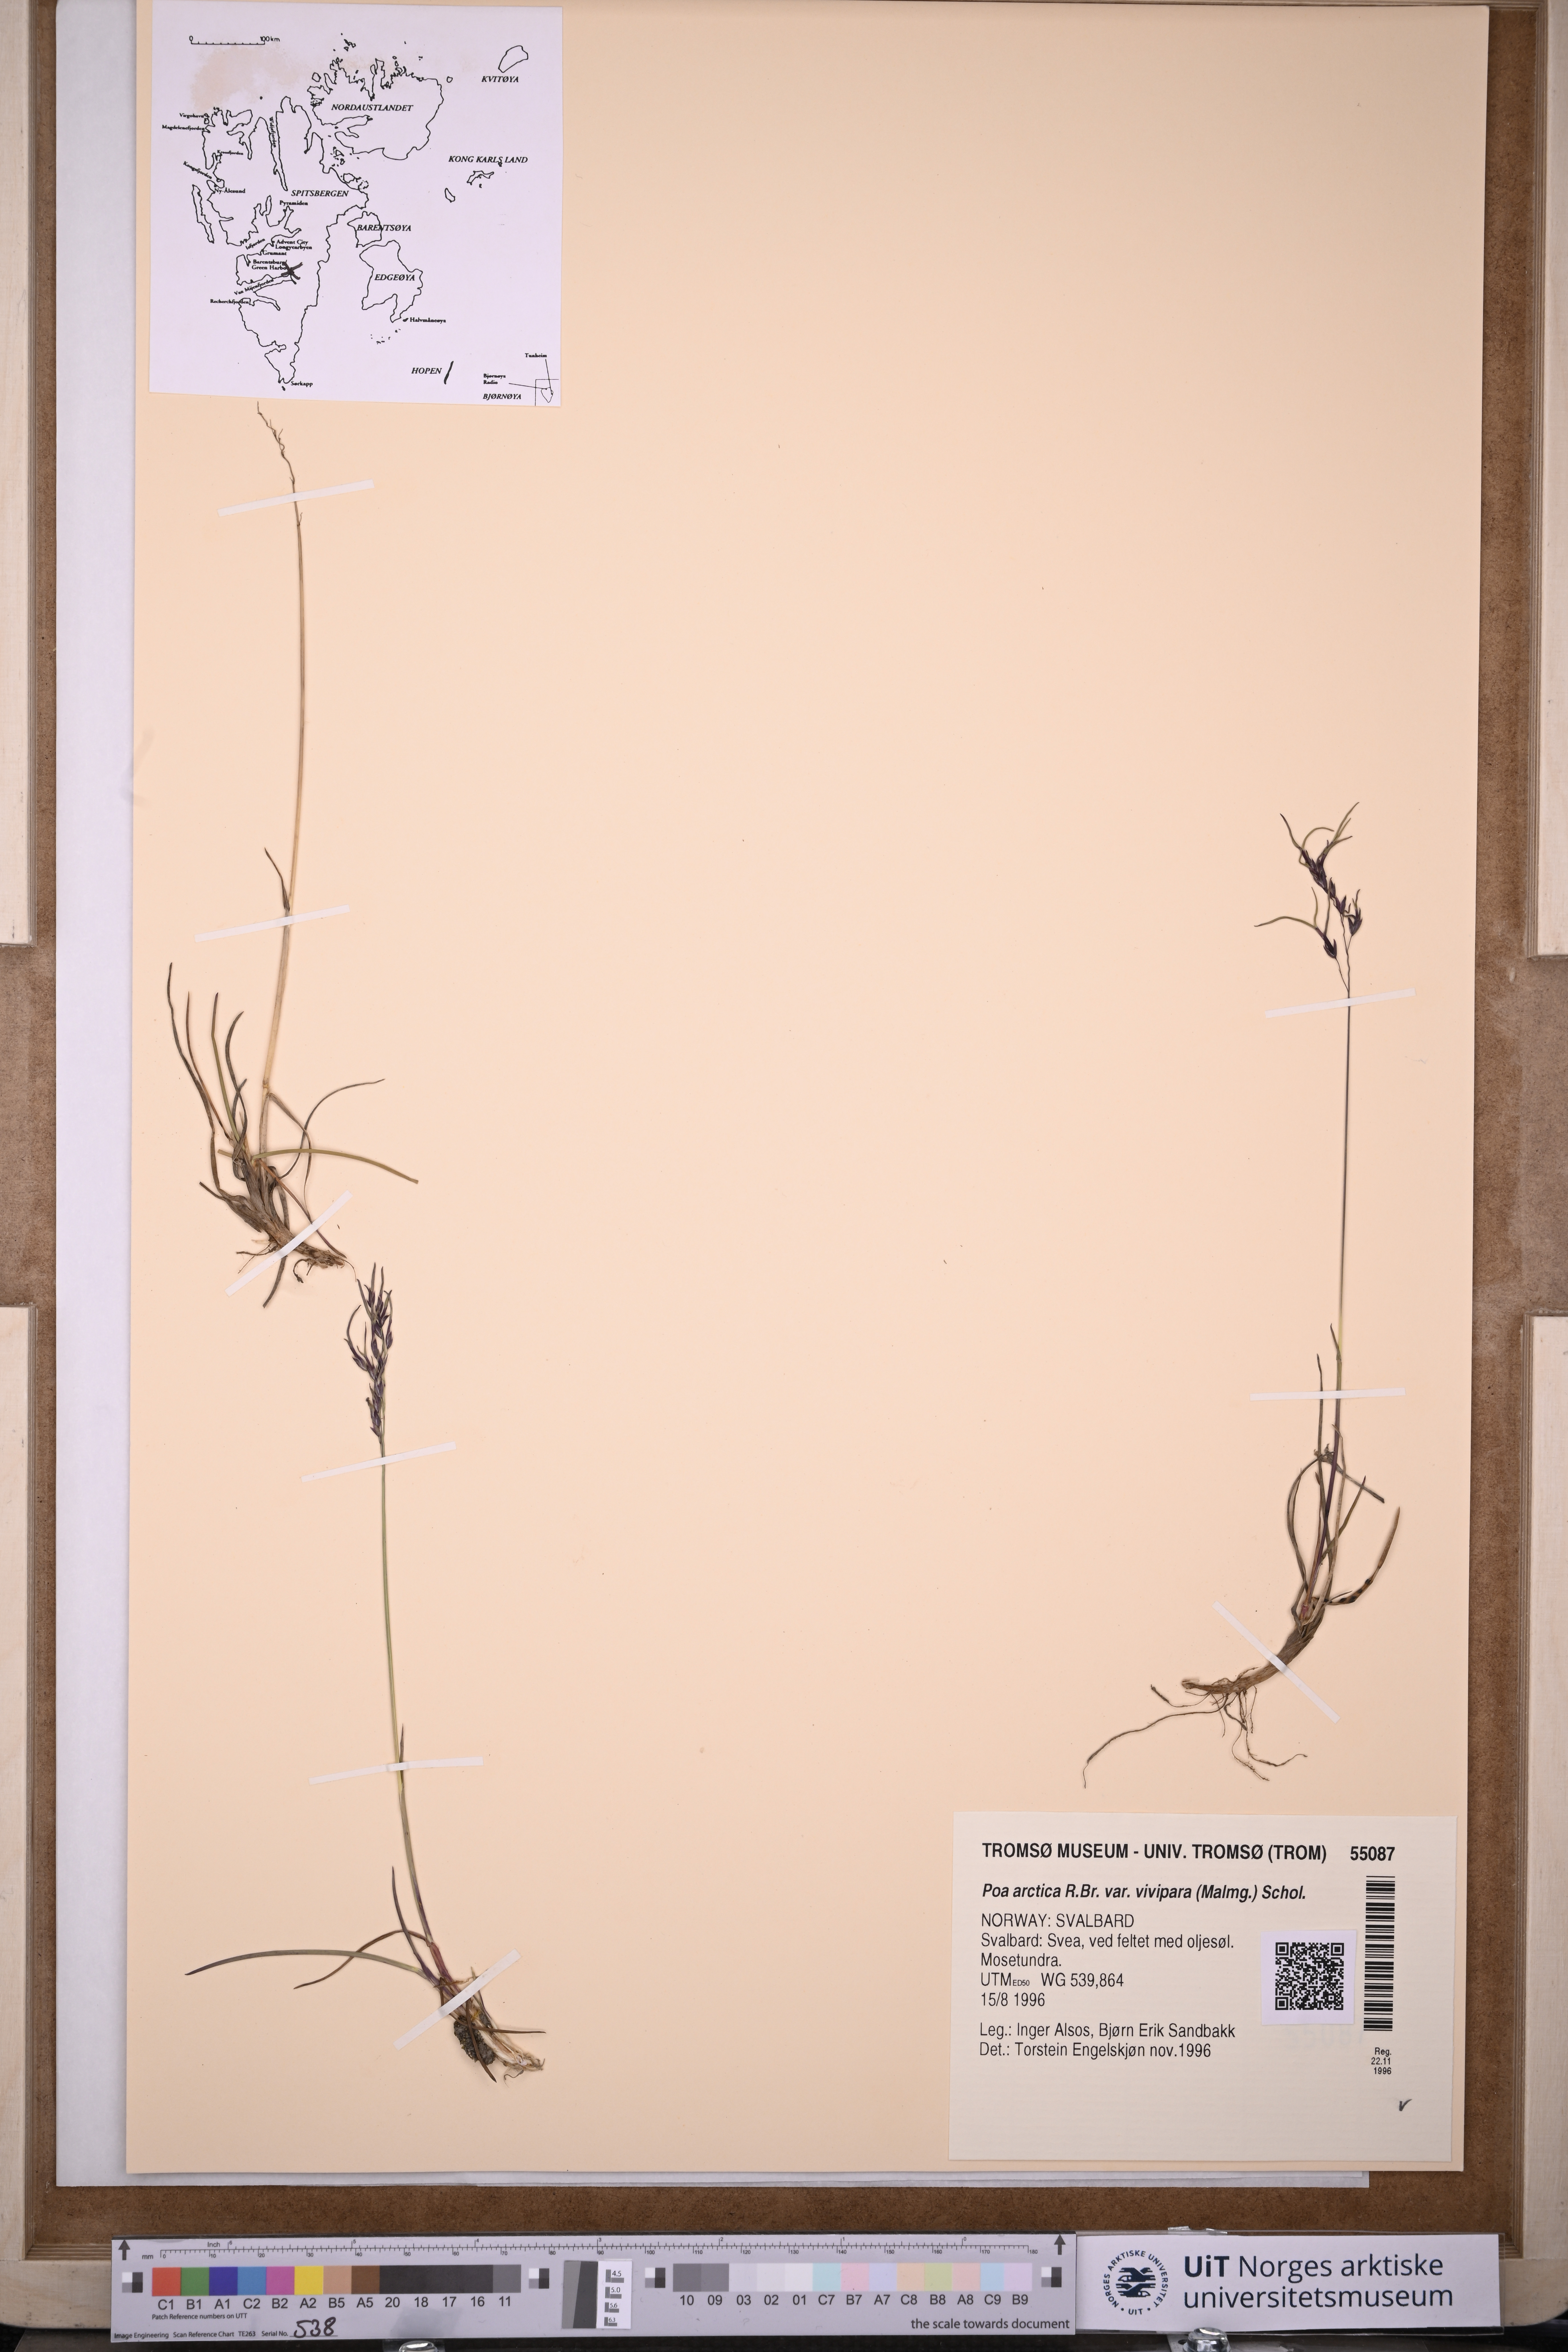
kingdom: Plantae
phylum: Tracheophyta
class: Liliopsida
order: Poales
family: Poaceae
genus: Poa
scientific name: Poa arctica
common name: Arctic bluegrass
